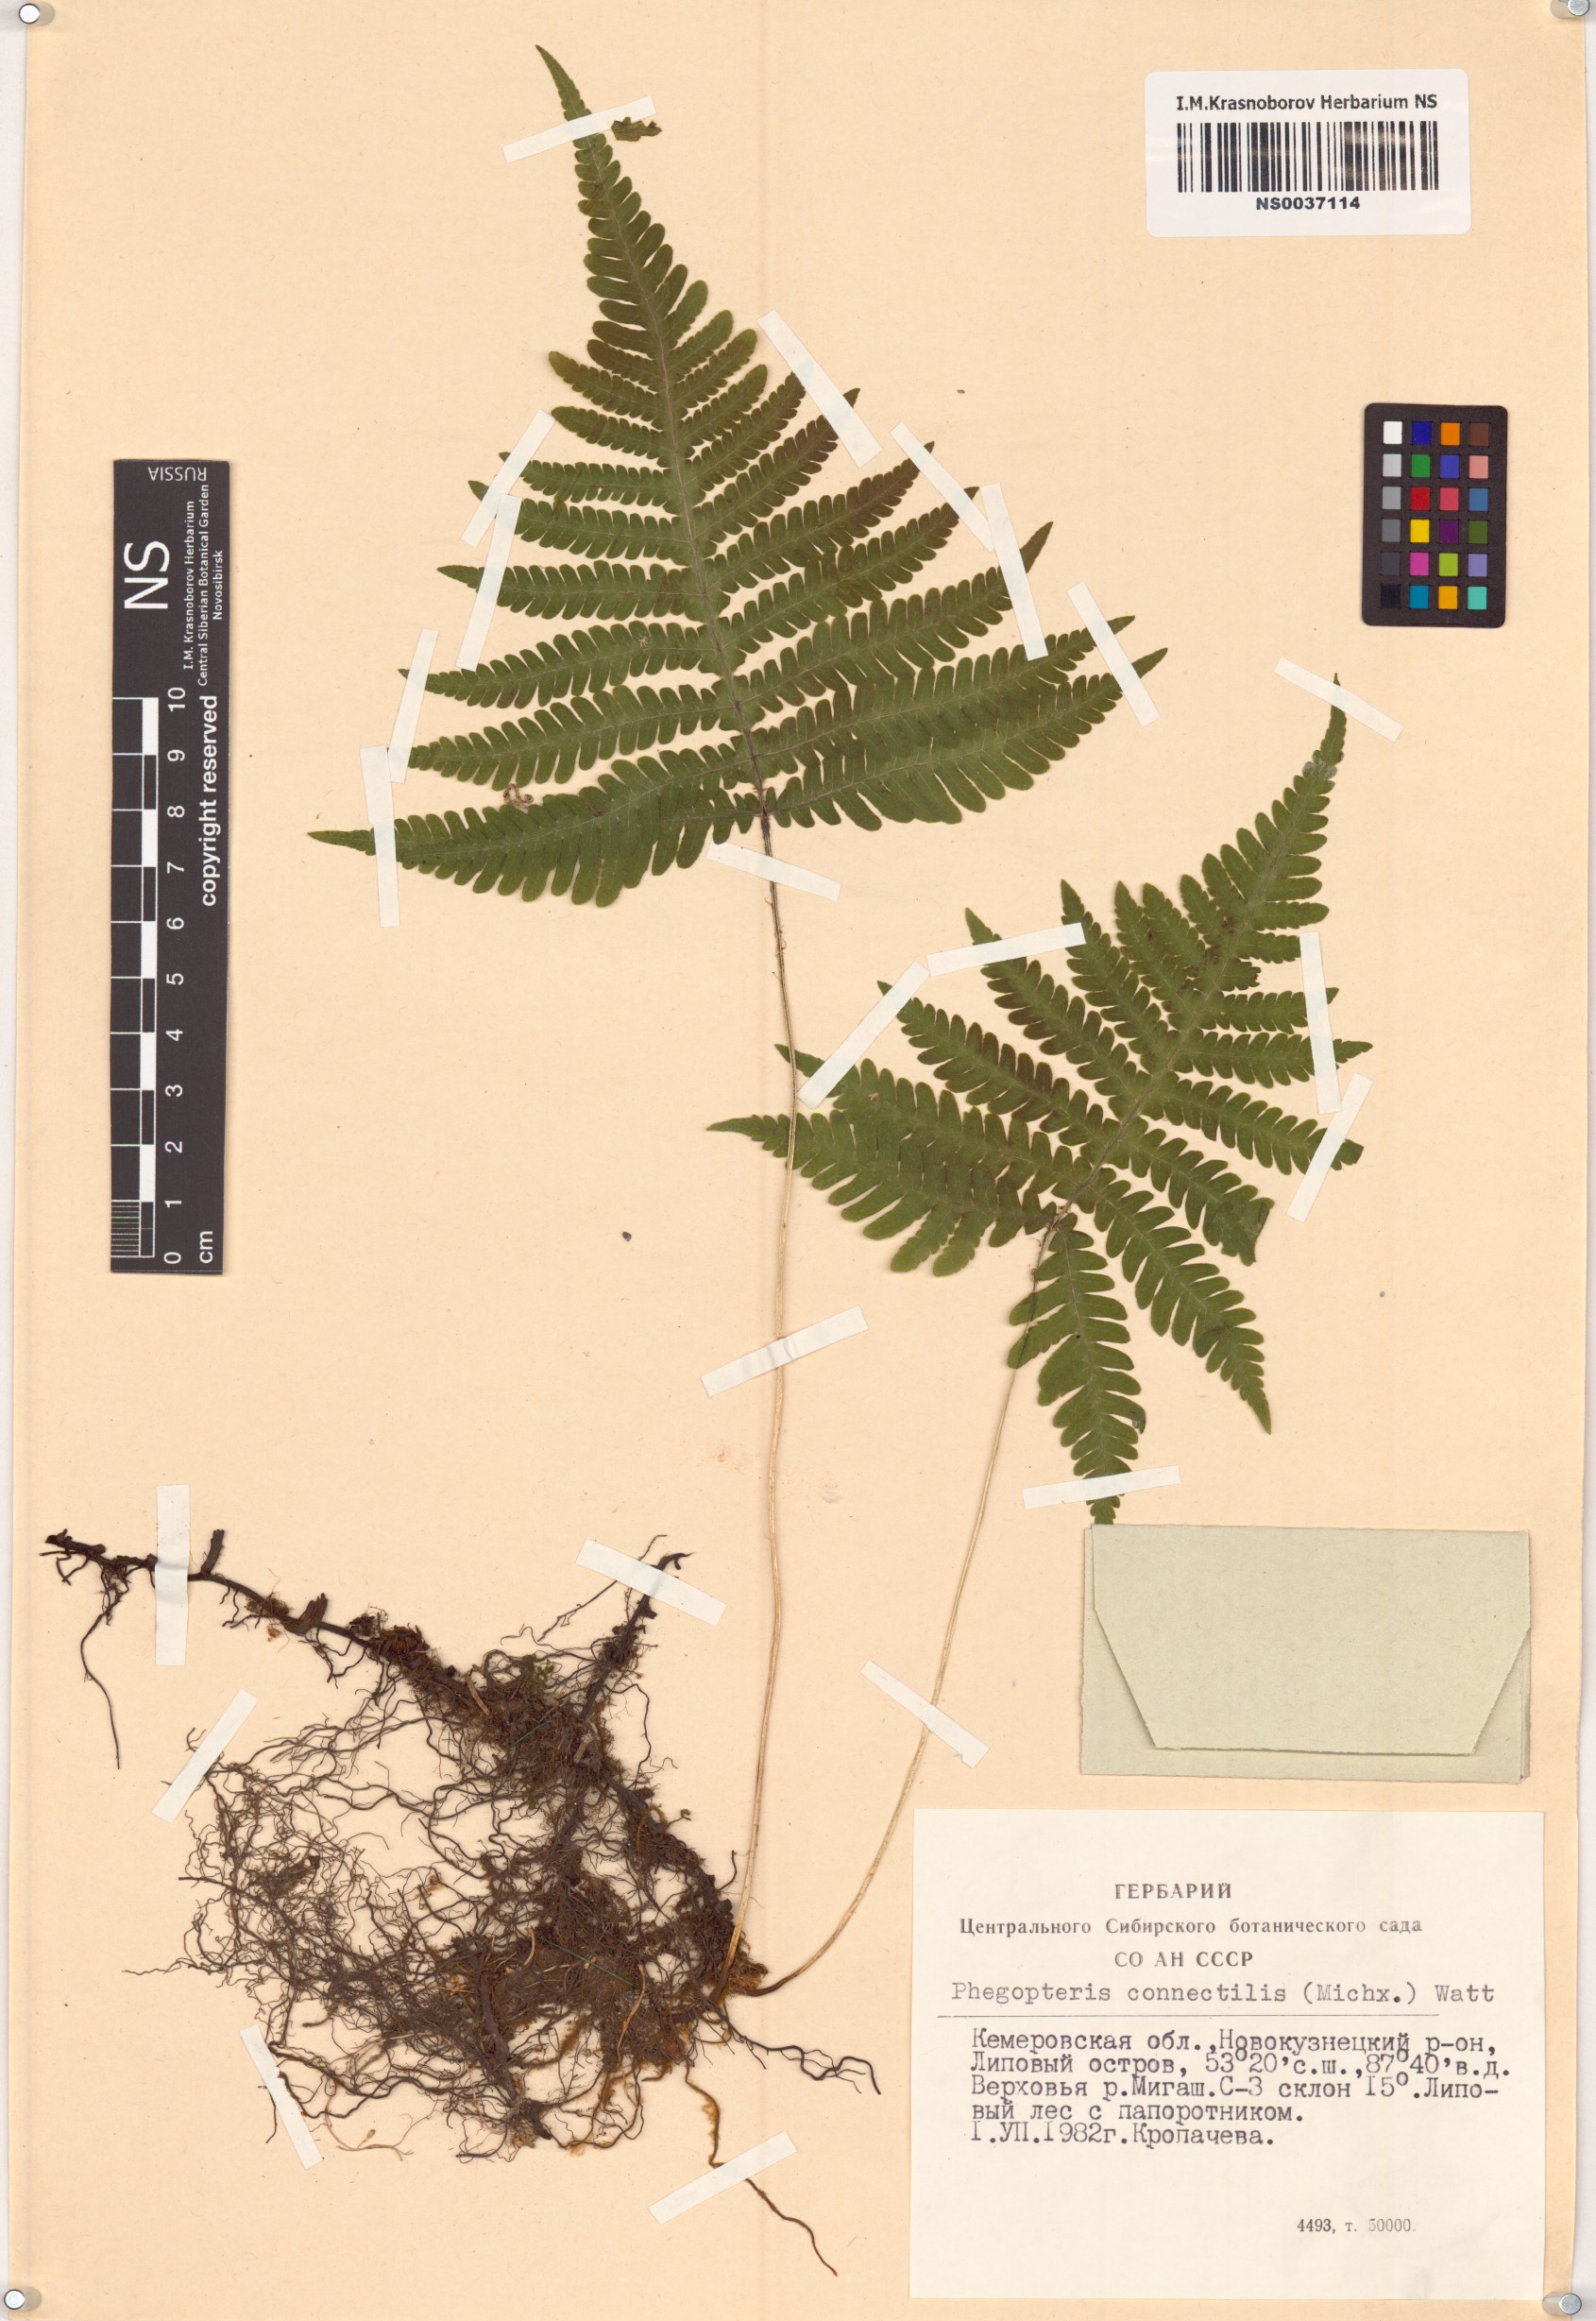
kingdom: Plantae
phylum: Tracheophyta
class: Polypodiopsida
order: Polypodiales
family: Thelypteridaceae
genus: Phegopteris
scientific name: Phegopteris connectilis
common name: Beech fern
